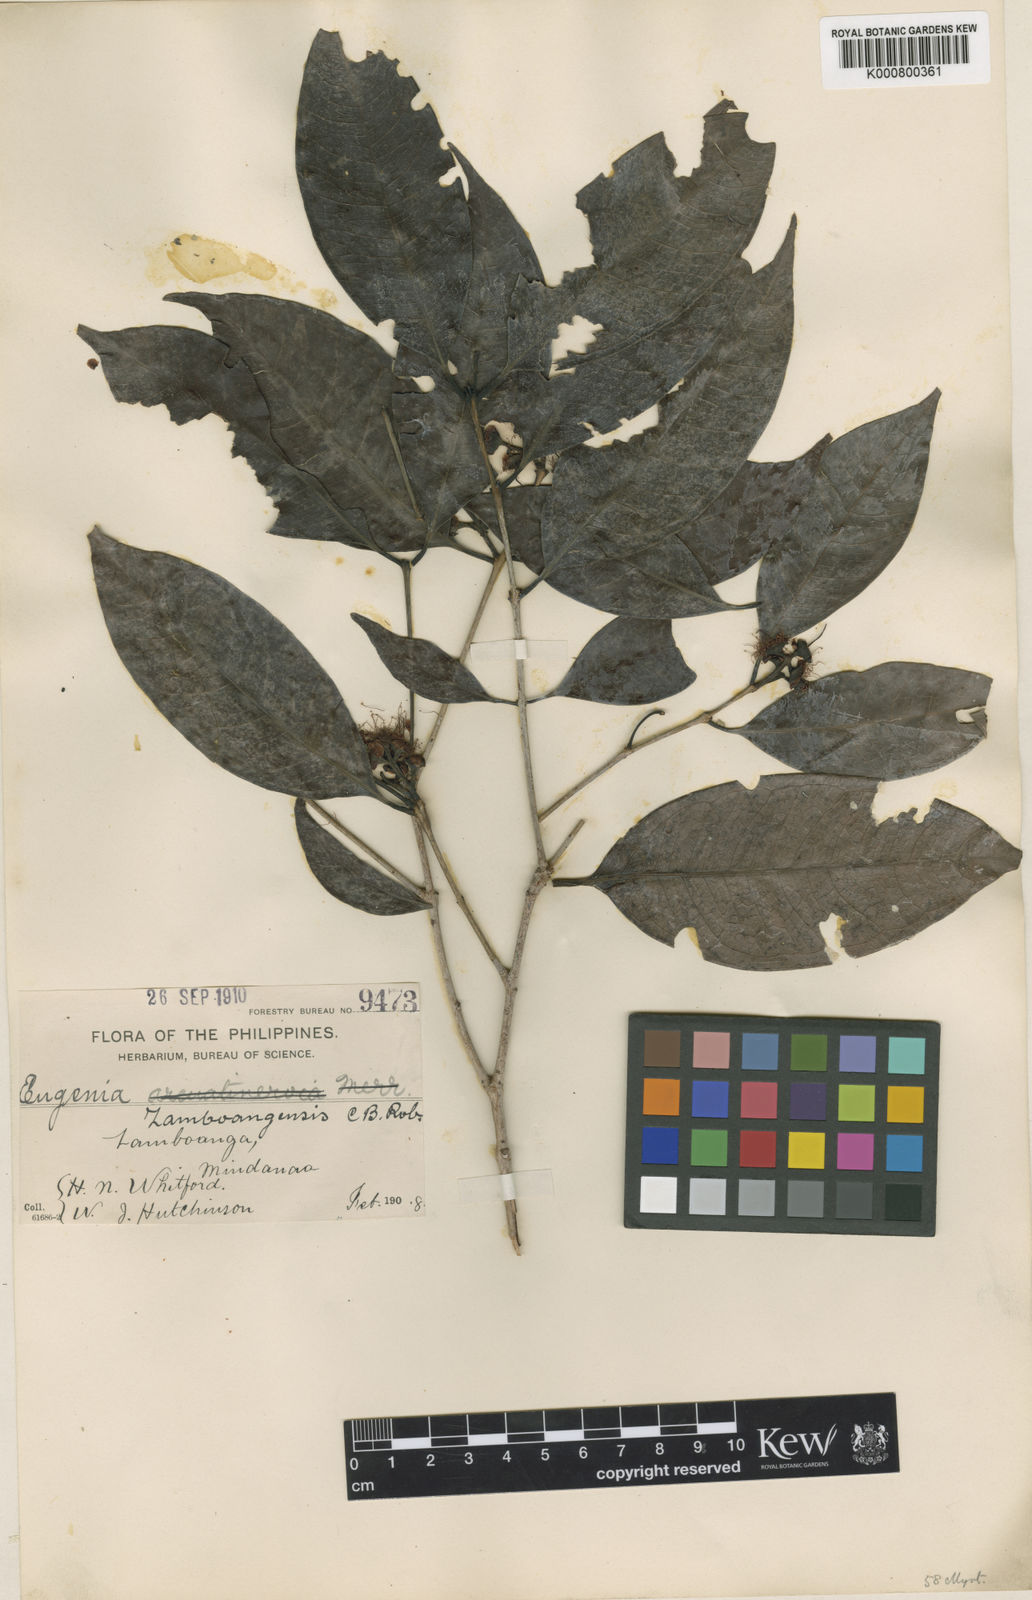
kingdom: Plantae
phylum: Tracheophyta
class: Magnoliopsida
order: Myrtales
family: Myrtaceae
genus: Syzygium
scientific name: Syzygium zamboangense
